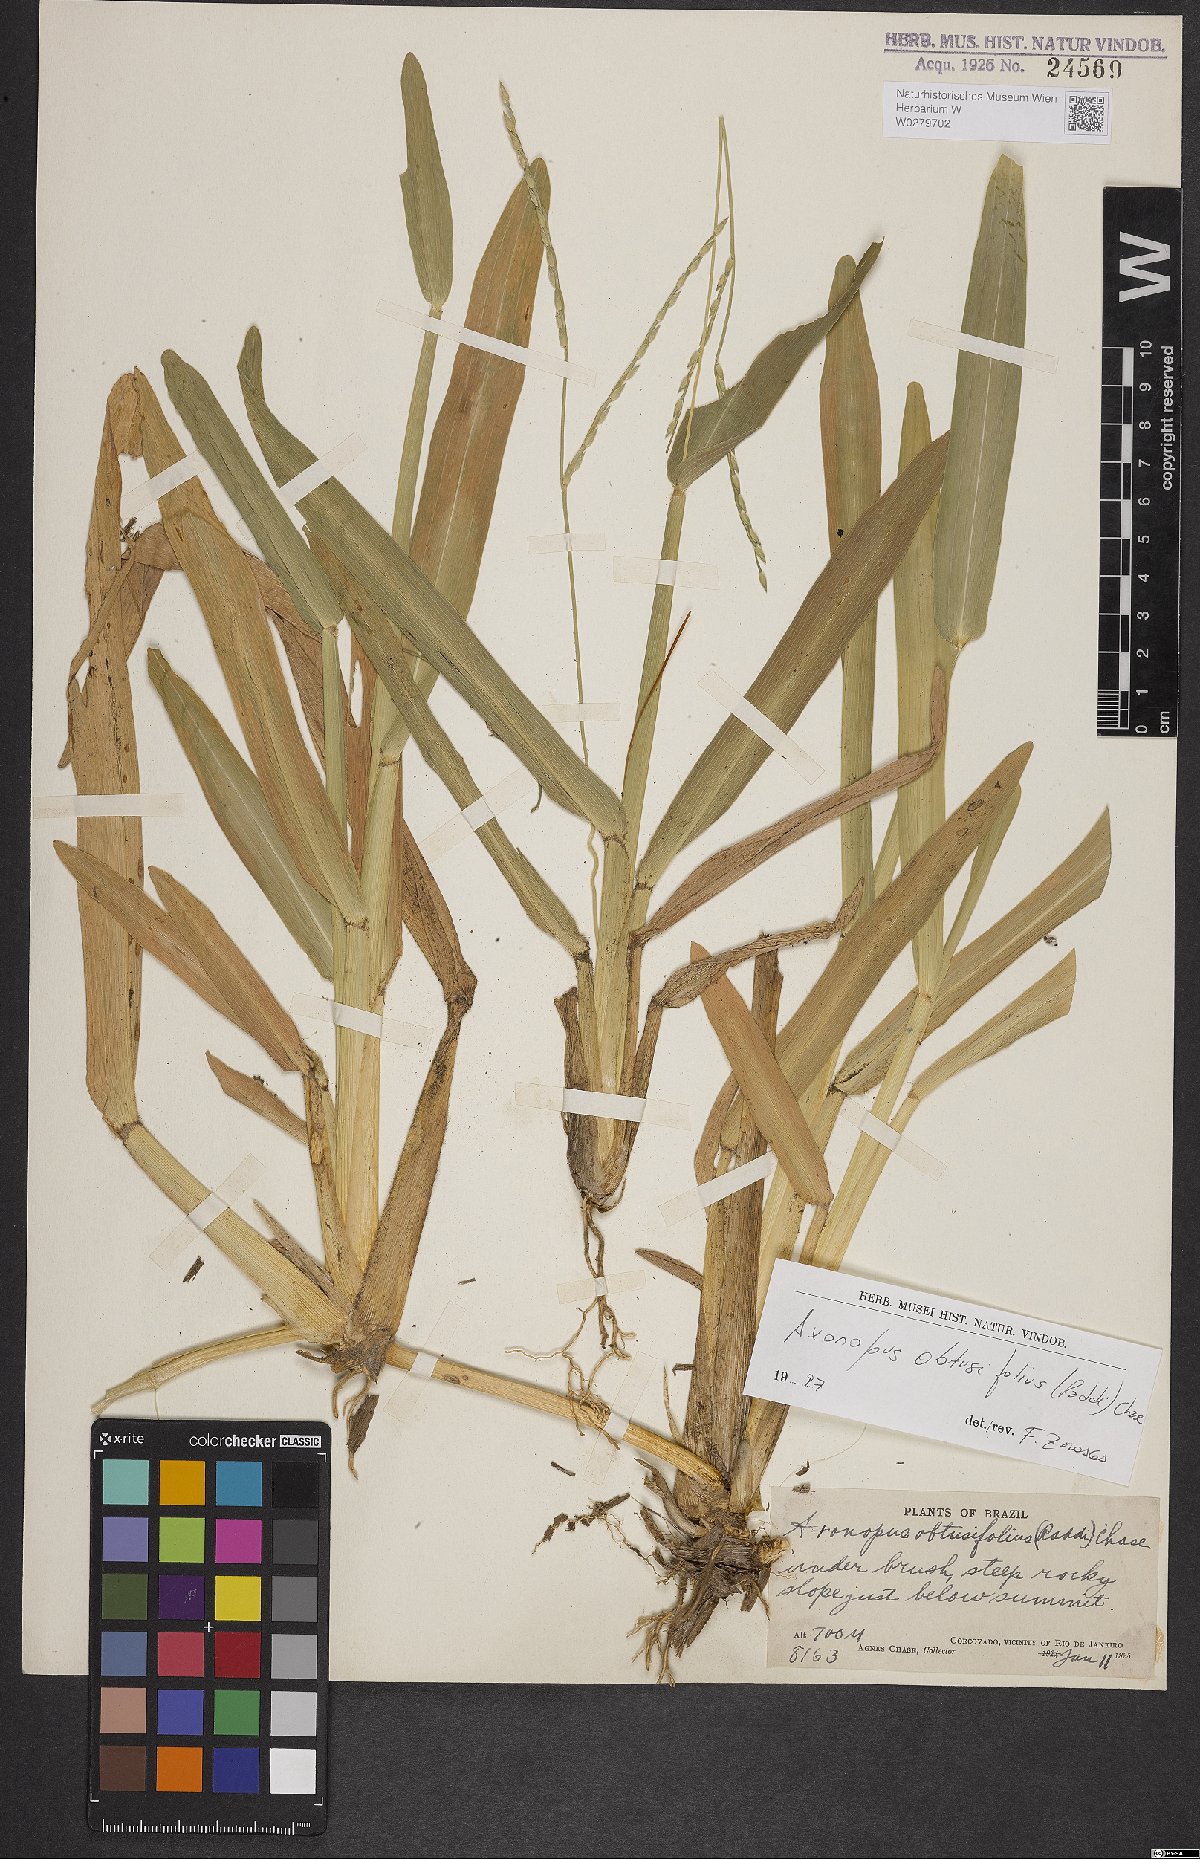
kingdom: Plantae
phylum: Tracheophyta
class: Liliopsida
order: Poales
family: Poaceae
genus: Axonopus
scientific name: Axonopus furcatus
